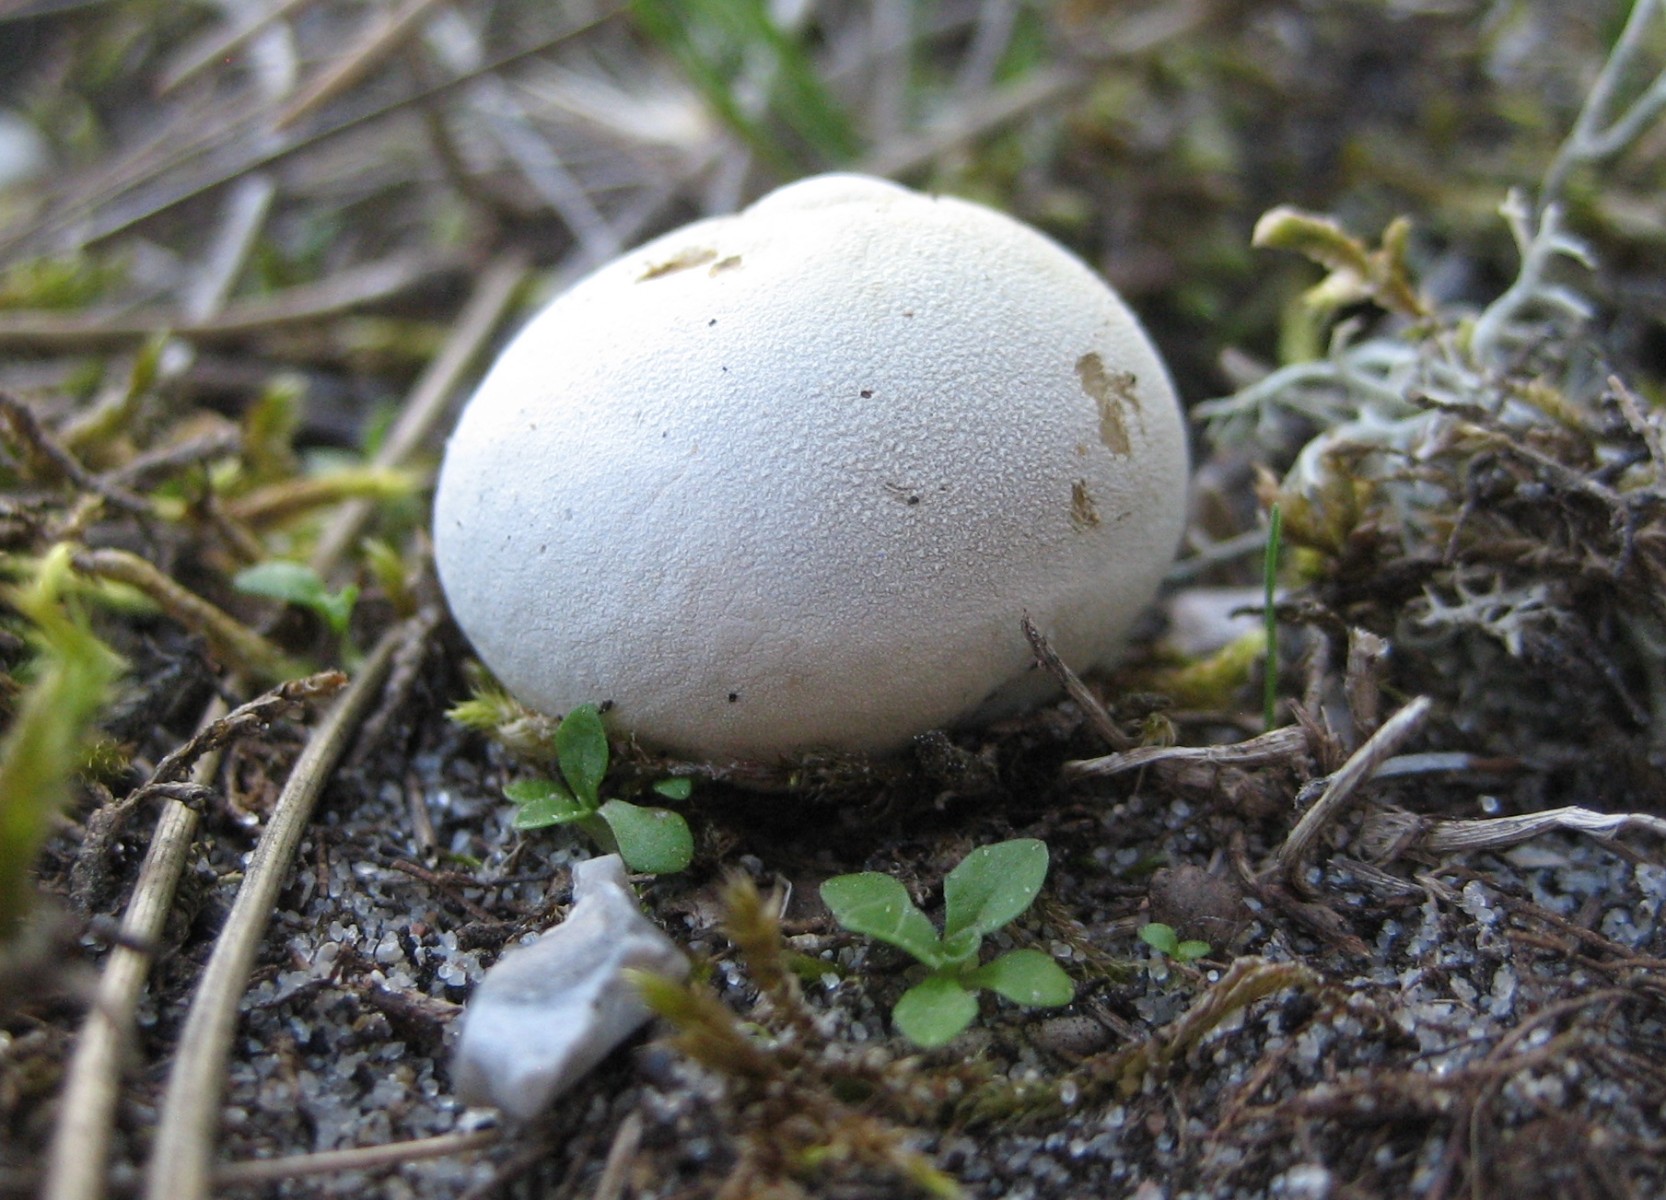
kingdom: Fungi
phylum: Basidiomycota
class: Agaricomycetes
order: Agaricales
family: Lycoperdaceae
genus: Bovista
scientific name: Bovista
